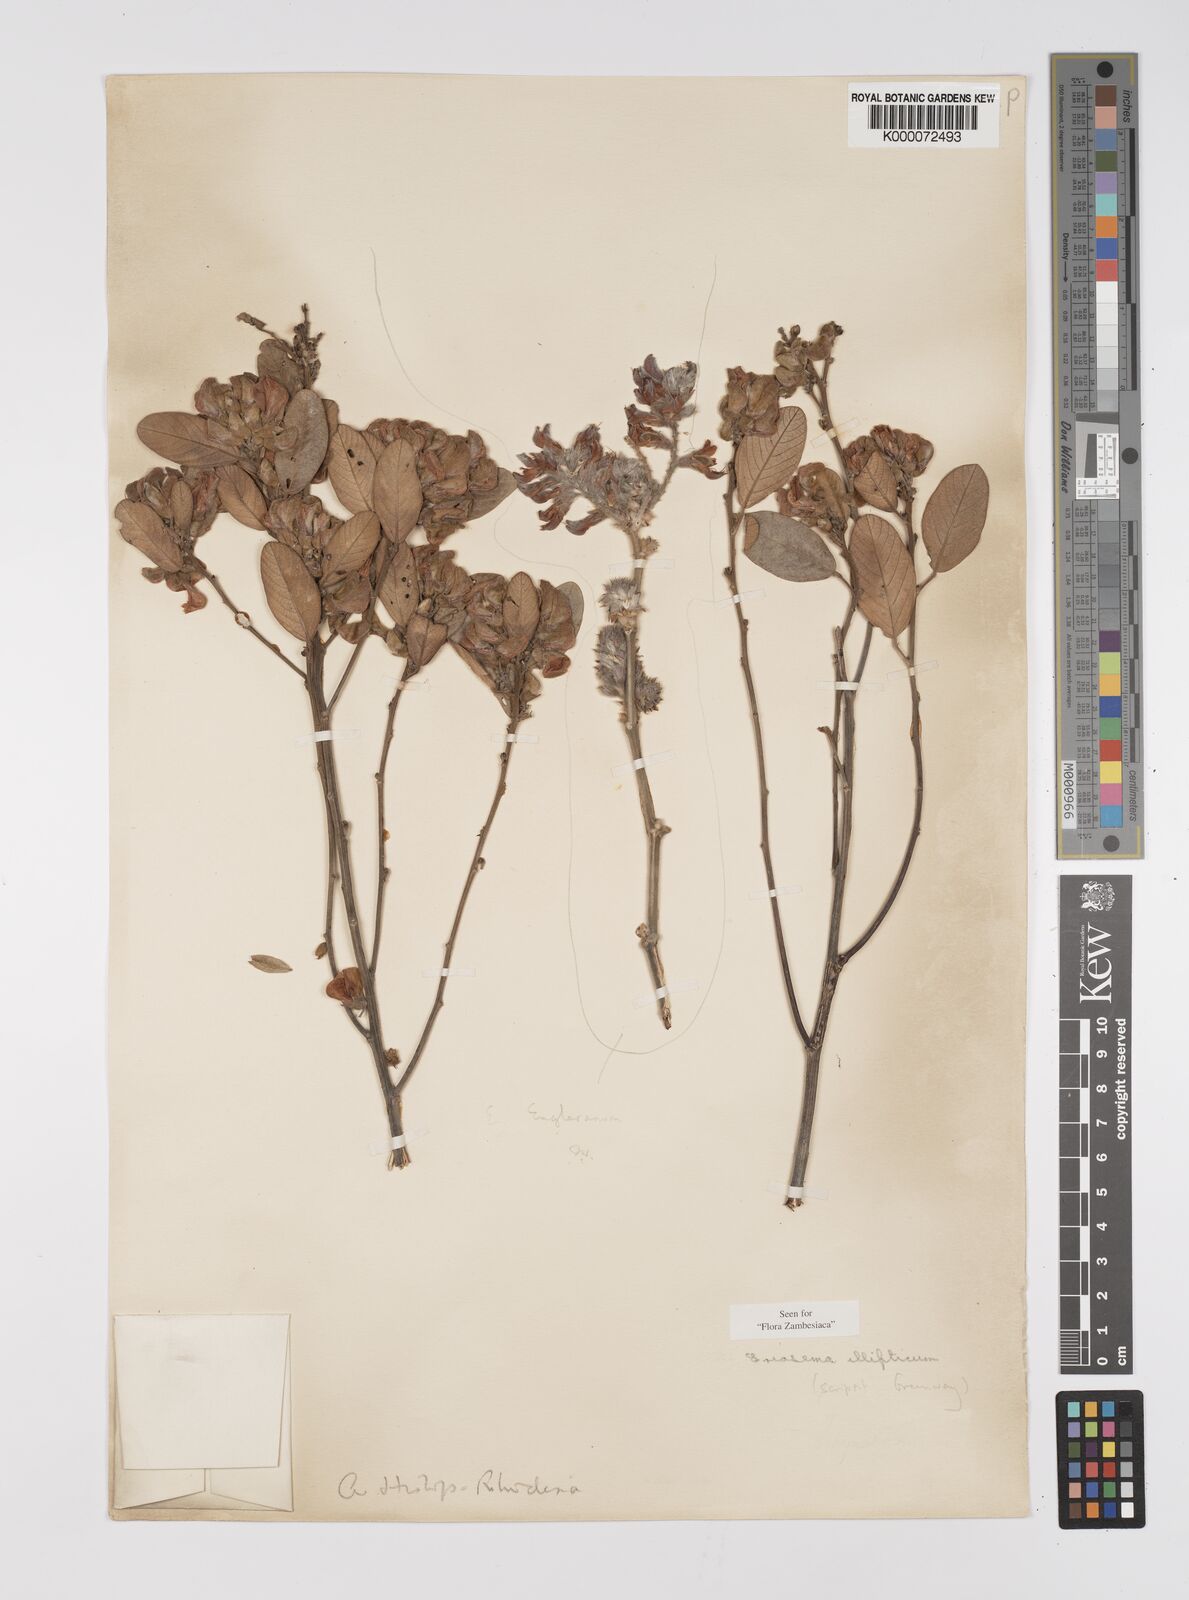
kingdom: Plantae
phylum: Tracheophyta
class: Magnoliopsida
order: Fabales
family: Fabaceae
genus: Eriosema
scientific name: Eriosema ellipticum
